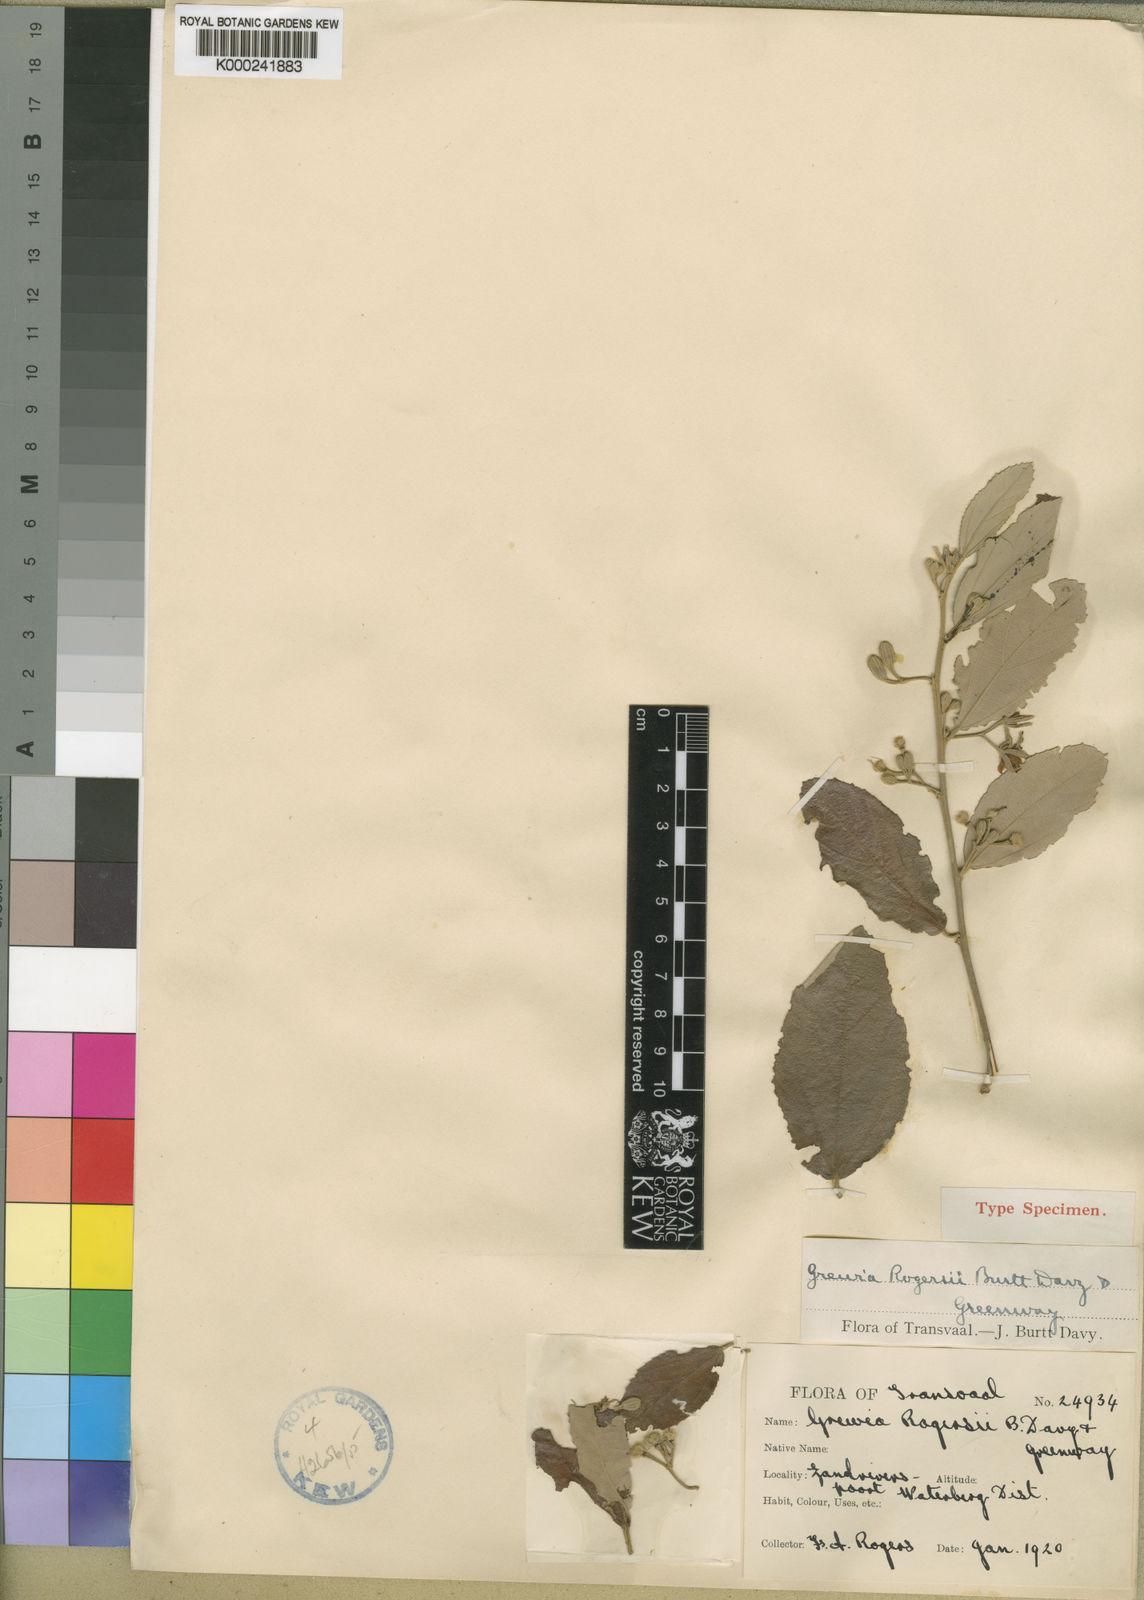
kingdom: Plantae
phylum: Tracheophyta
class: Magnoliopsida
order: Malvales
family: Malvaceae
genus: Grewia
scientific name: Grewia rogersii
